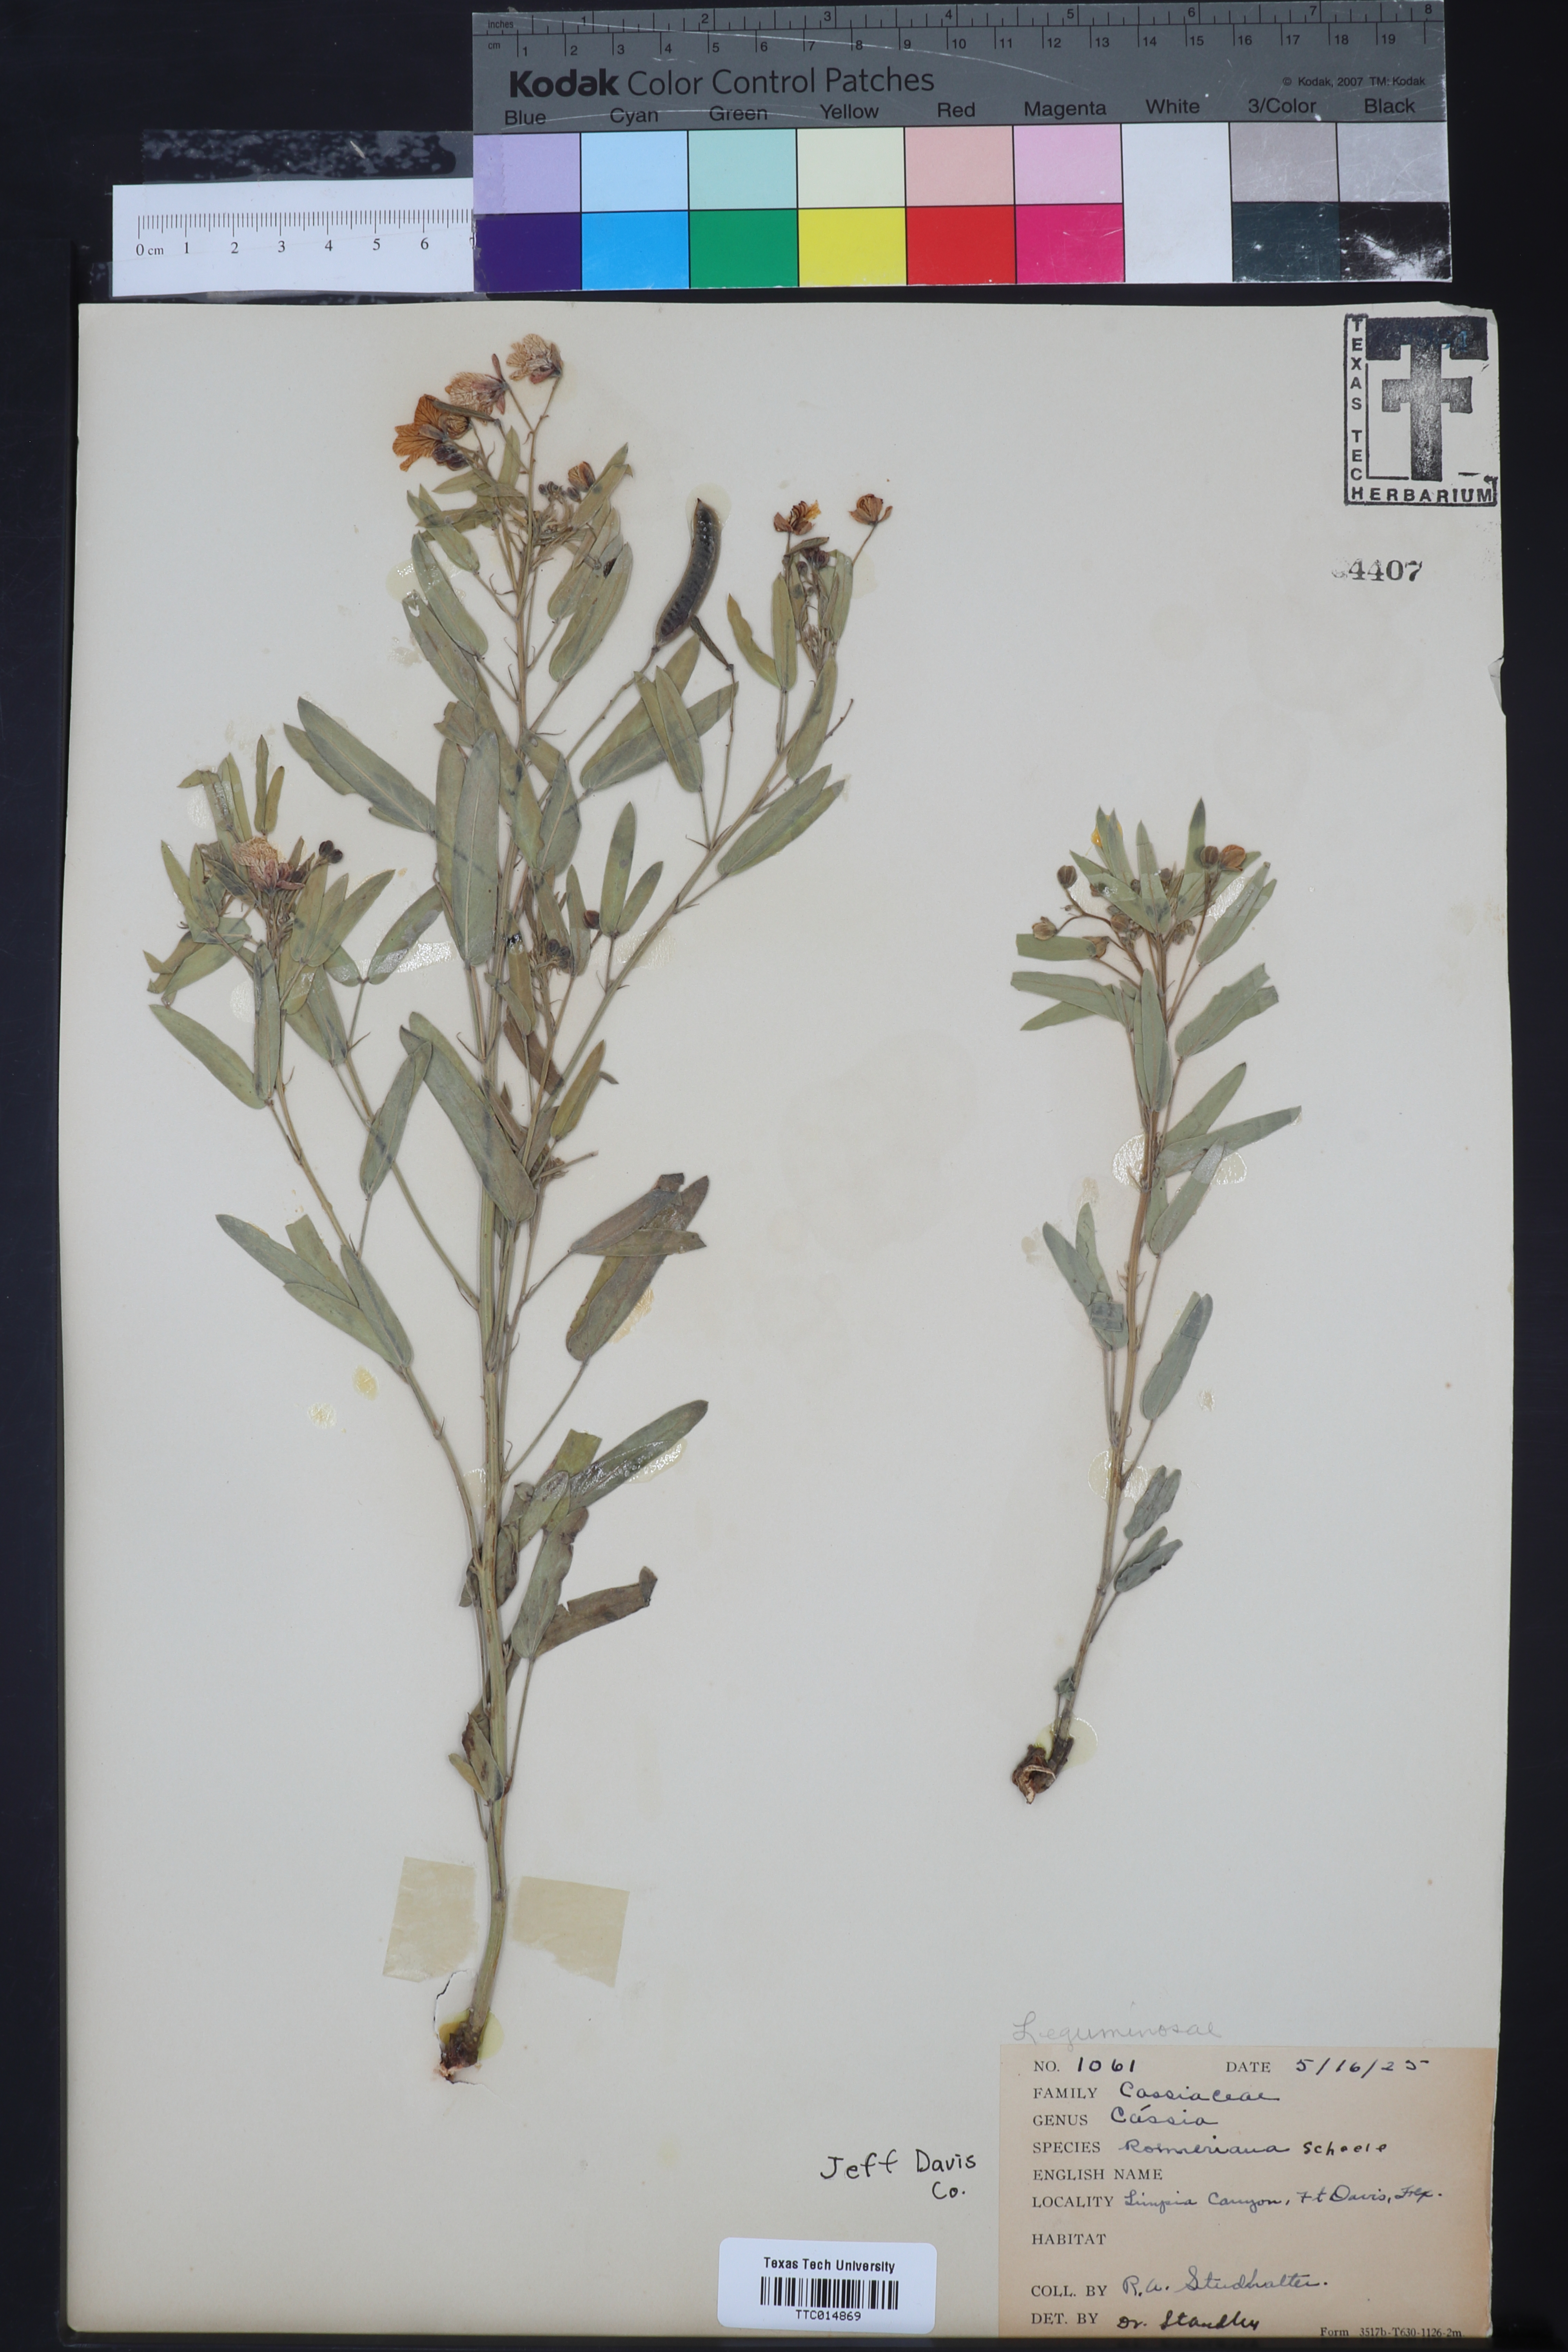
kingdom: Plantae
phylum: Tracheophyta
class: Magnoliopsida
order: Fabales
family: Fabaceae
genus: Senna
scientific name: Senna roemeriana
